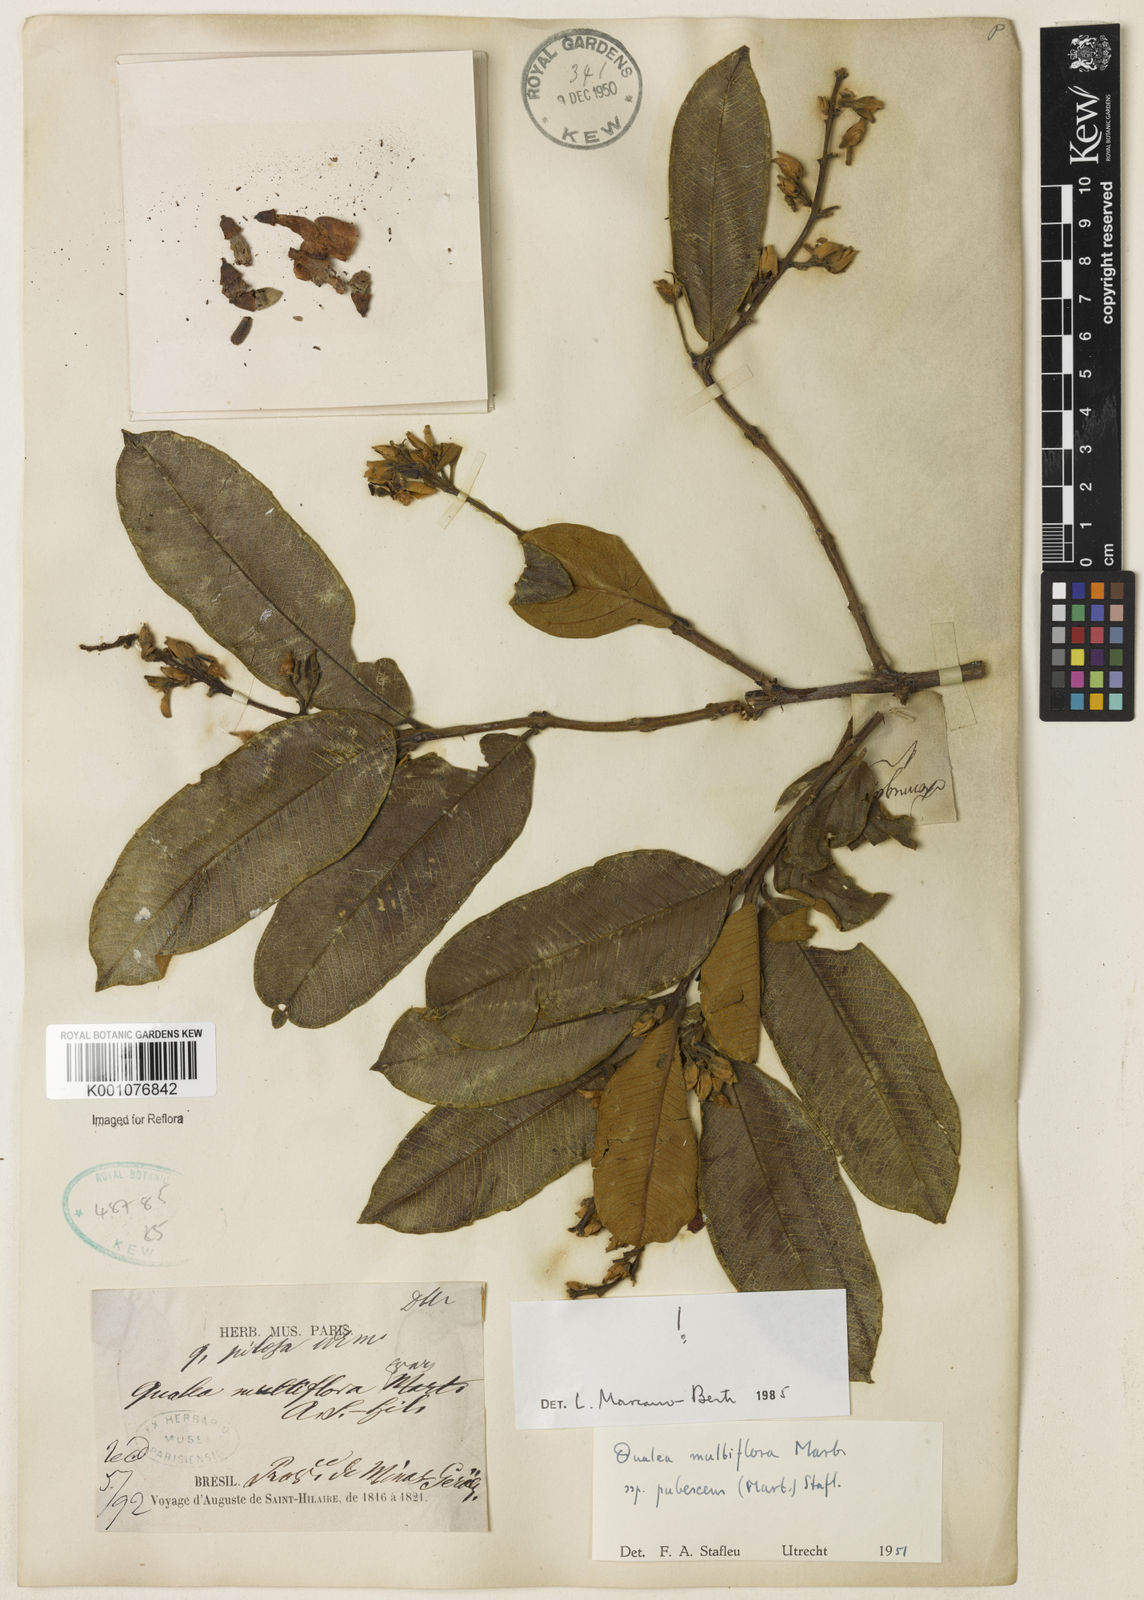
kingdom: Plantae
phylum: Tracheophyta
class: Magnoliopsida
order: Myrtales
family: Vochysiaceae
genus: Qualea
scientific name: Qualea multiflora
